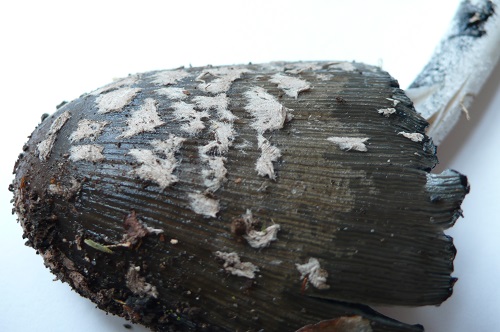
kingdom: Fungi
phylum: Basidiomycota
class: Agaricomycetes
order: Agaricales
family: Psathyrellaceae
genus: Coprinopsis
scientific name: Coprinopsis picacea
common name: skade-blækhat
